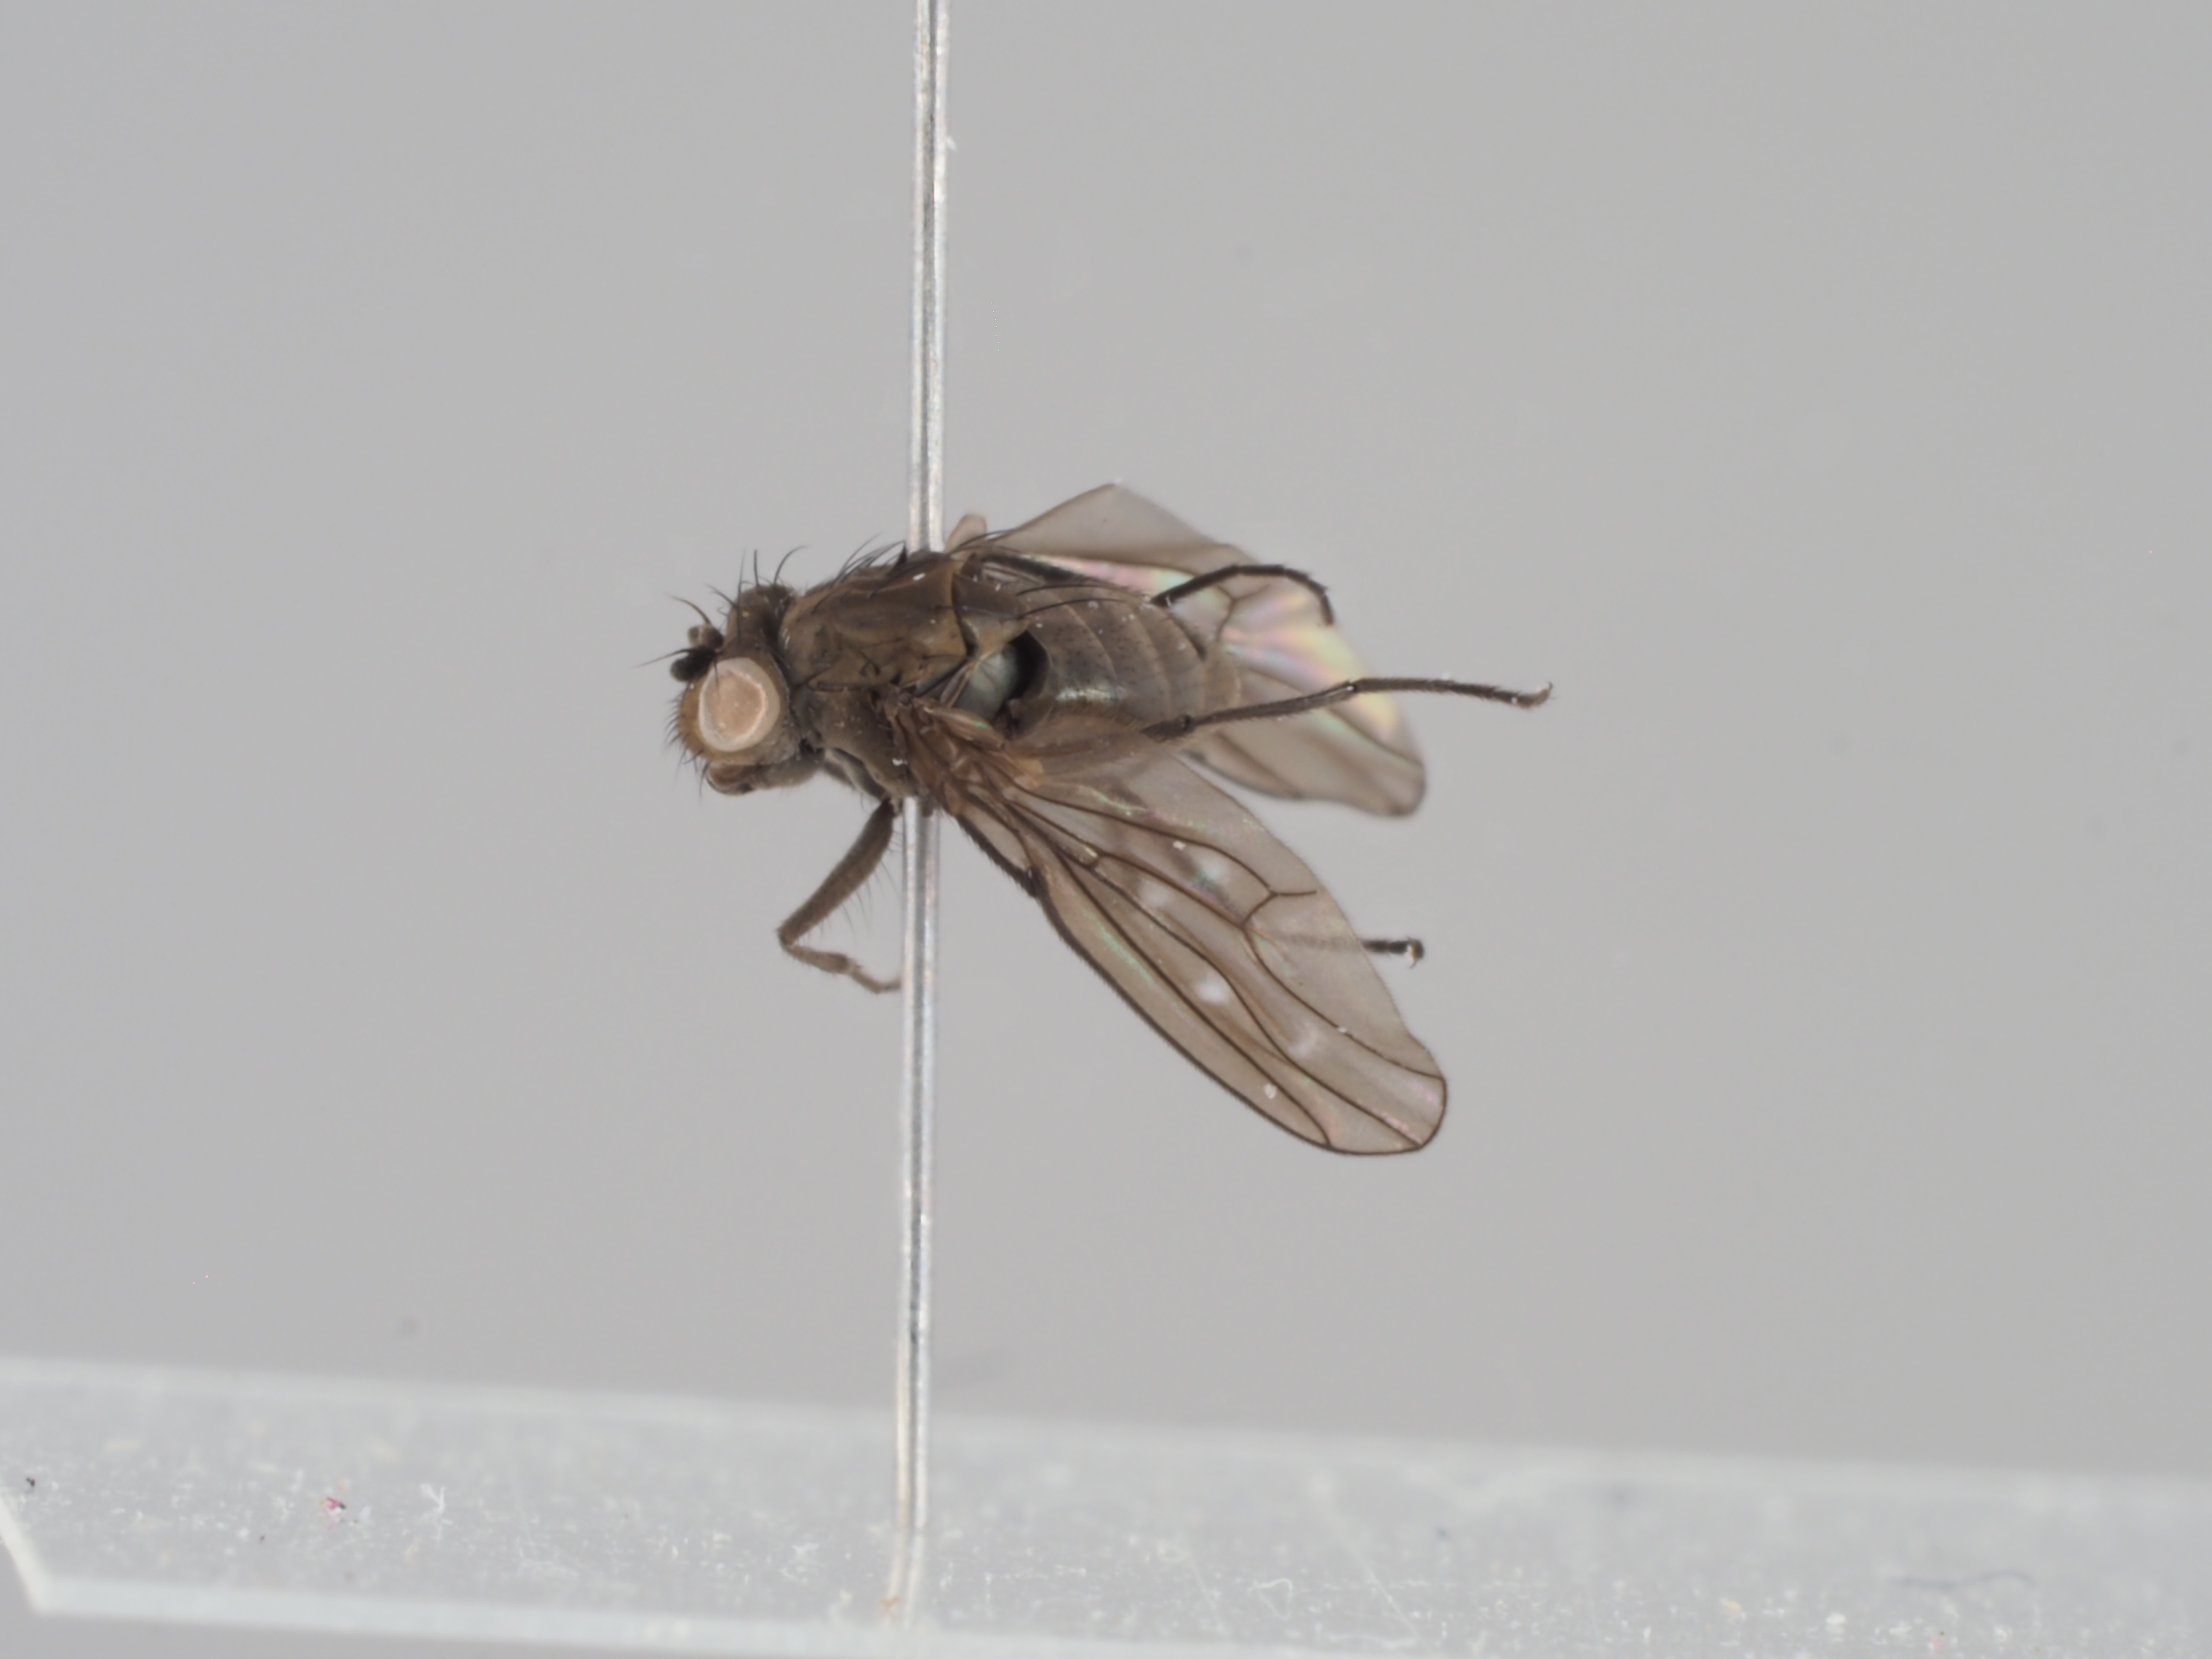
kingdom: Animalia
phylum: Arthropoda
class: Insecta
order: Diptera
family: Ephydridae
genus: Scatella
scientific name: Scatella crassicosta
